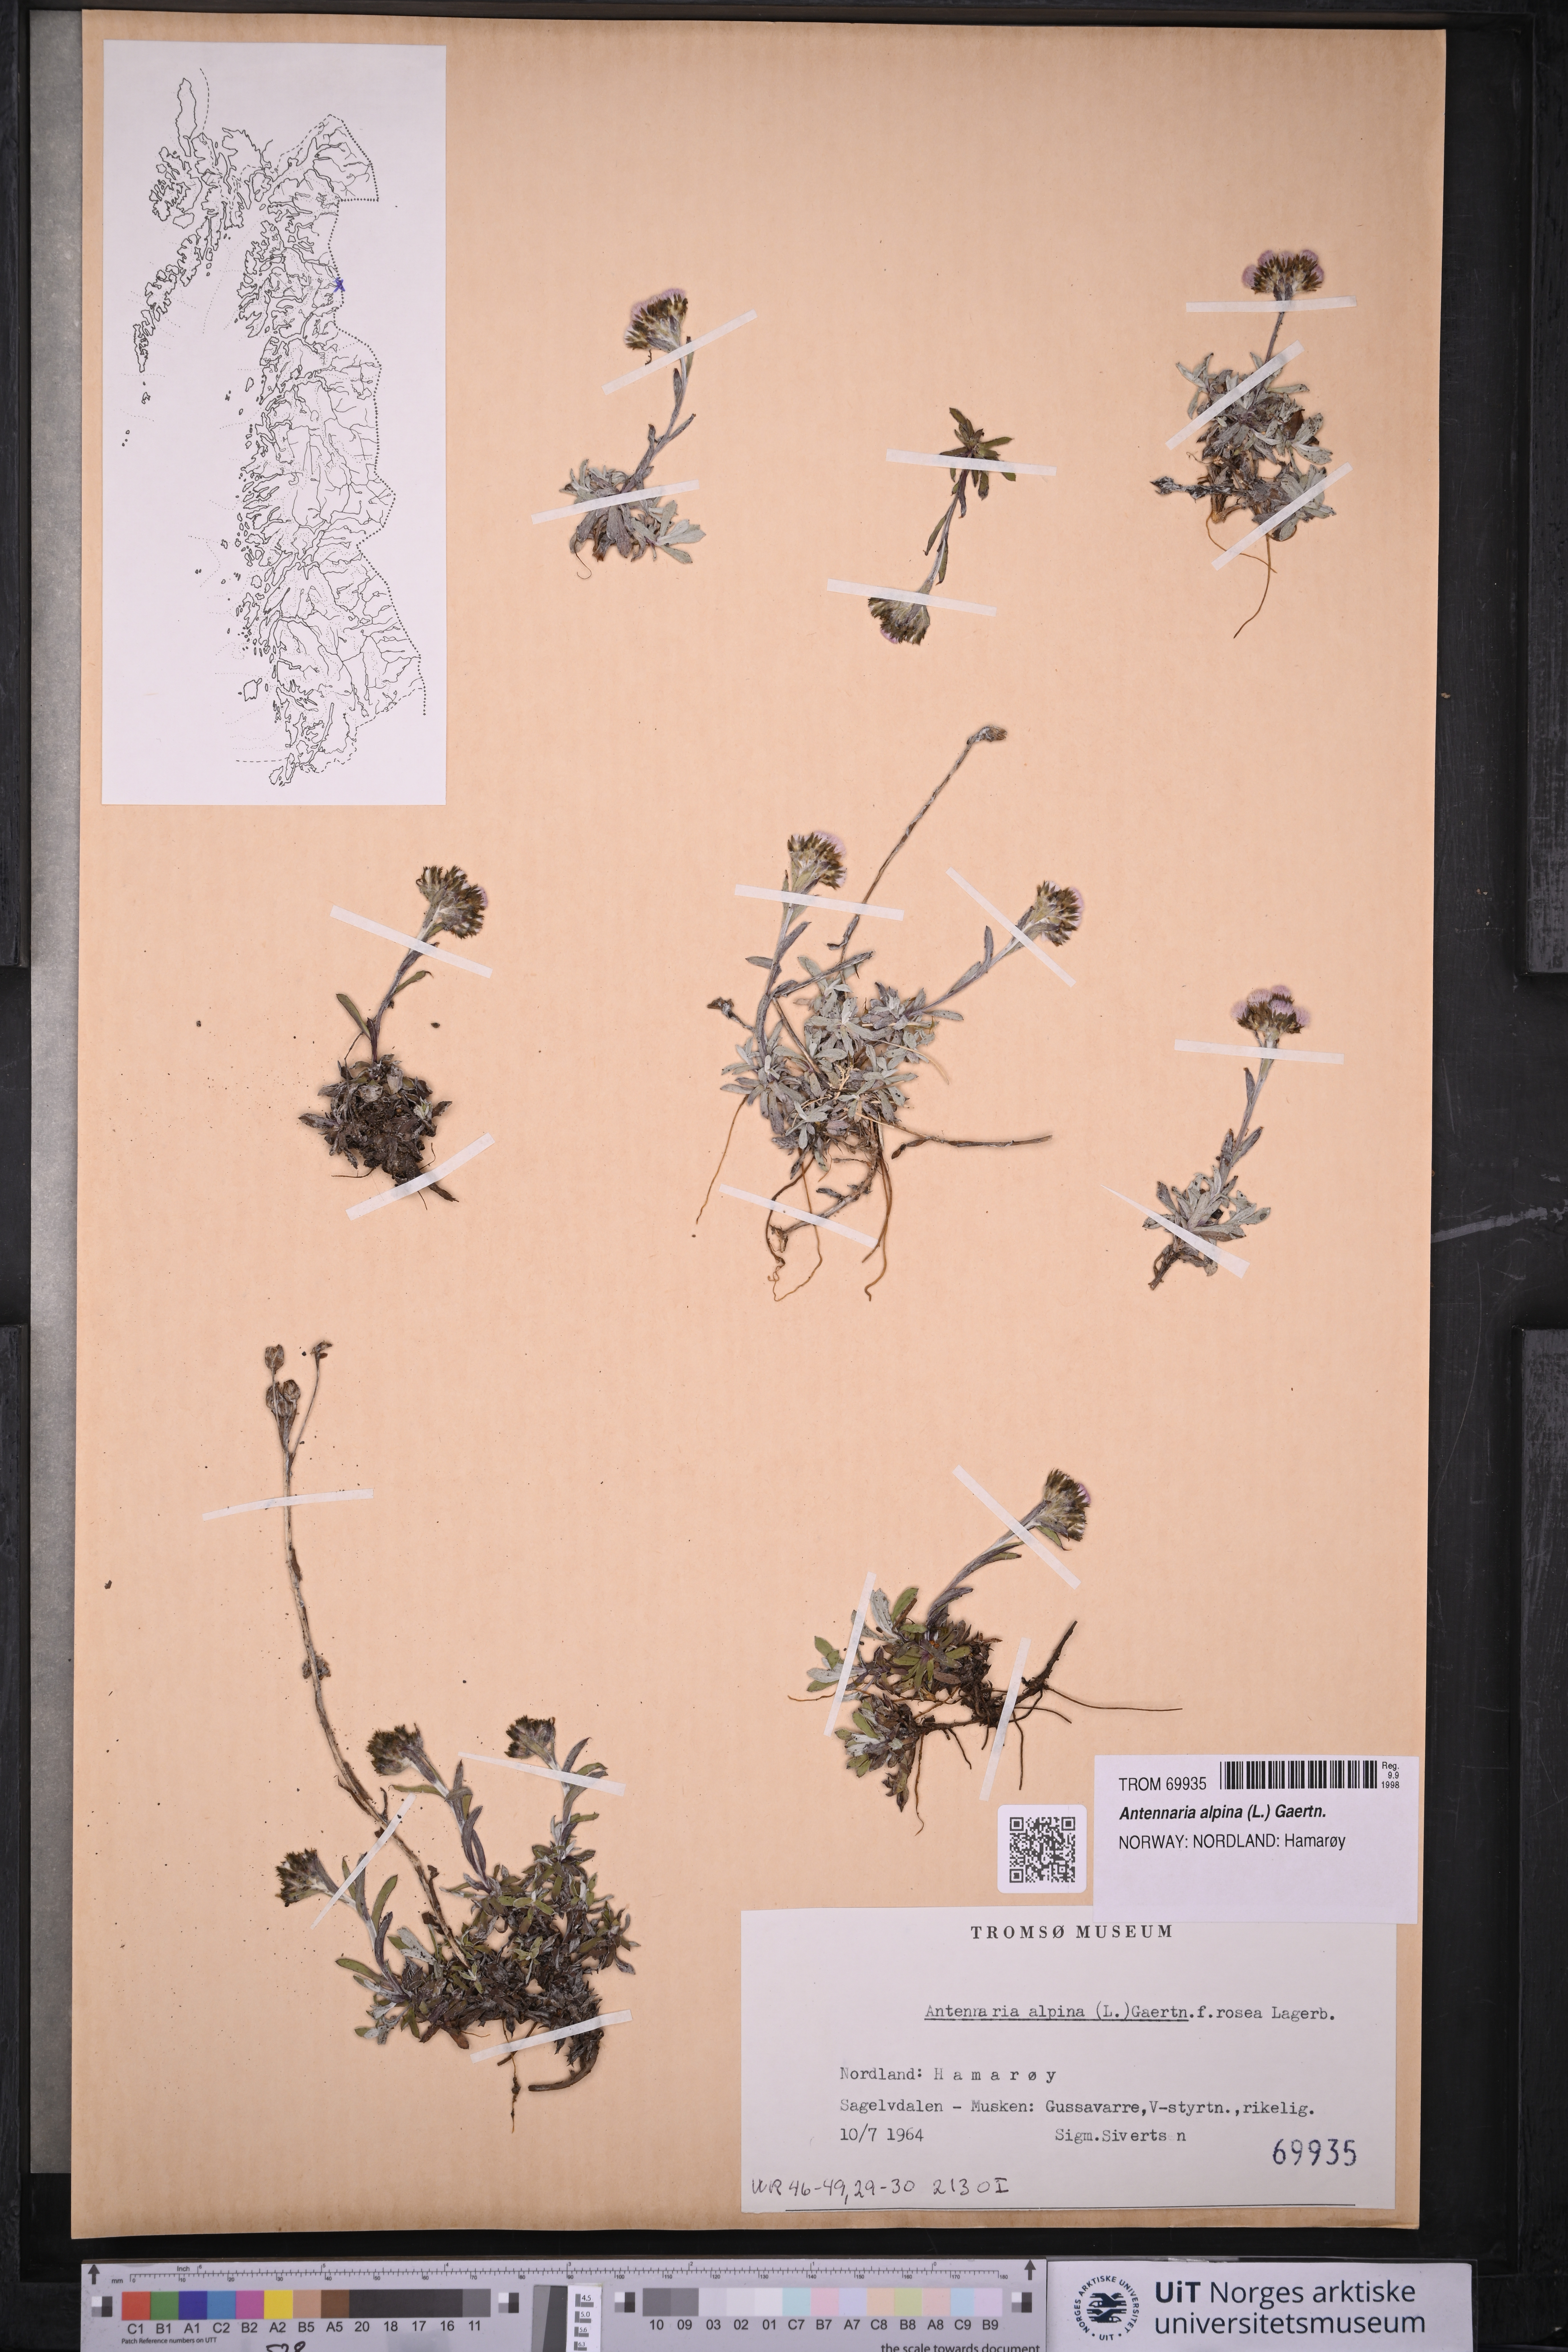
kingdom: Plantae
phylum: Tracheophyta
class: Magnoliopsida
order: Asterales
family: Asteraceae
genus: Antennaria
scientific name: Antennaria alpina
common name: Alpine pussytoes
